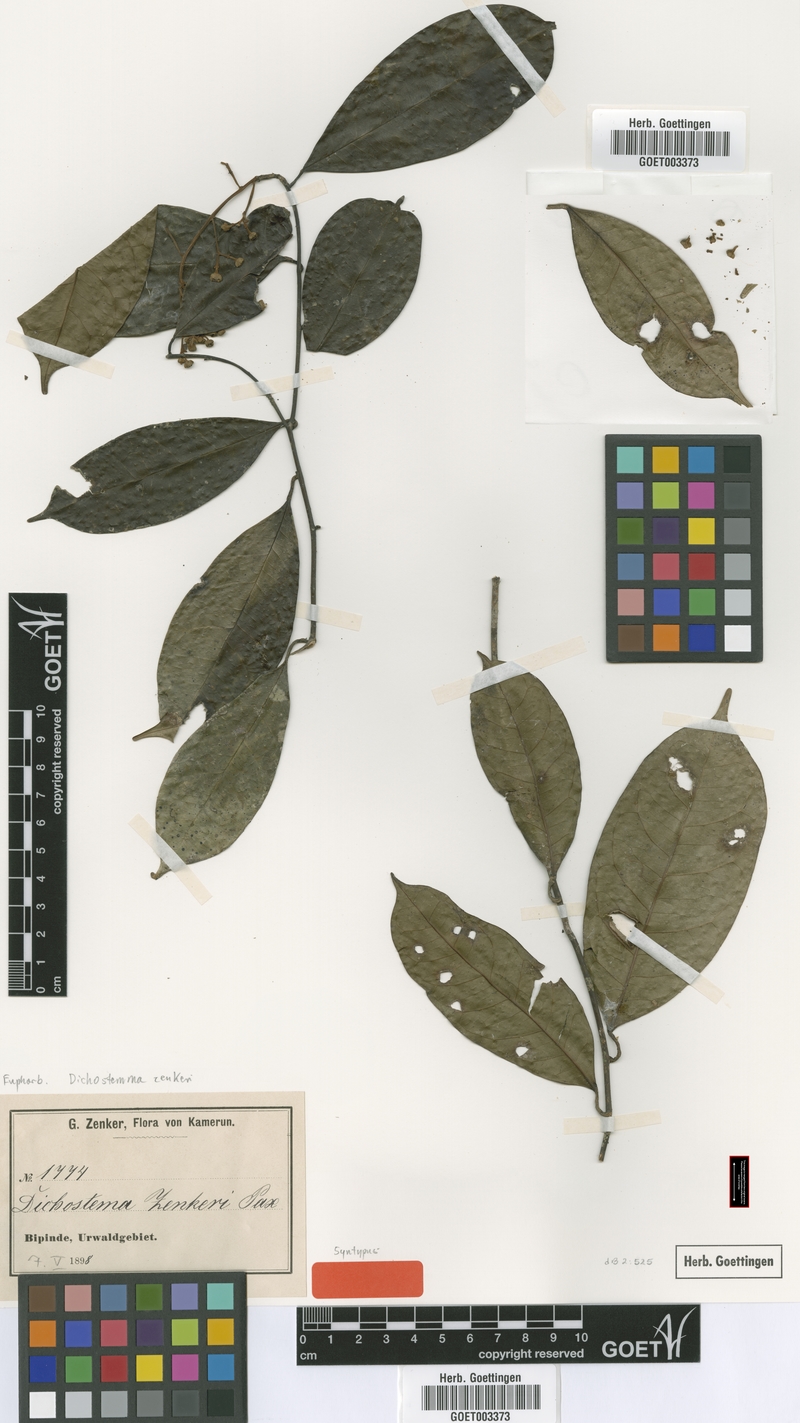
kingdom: Plantae
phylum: Tracheophyta
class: Magnoliopsida
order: Malpighiales
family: Euphorbiaceae
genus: Dichostemma
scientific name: Dichostemma zenkeri
